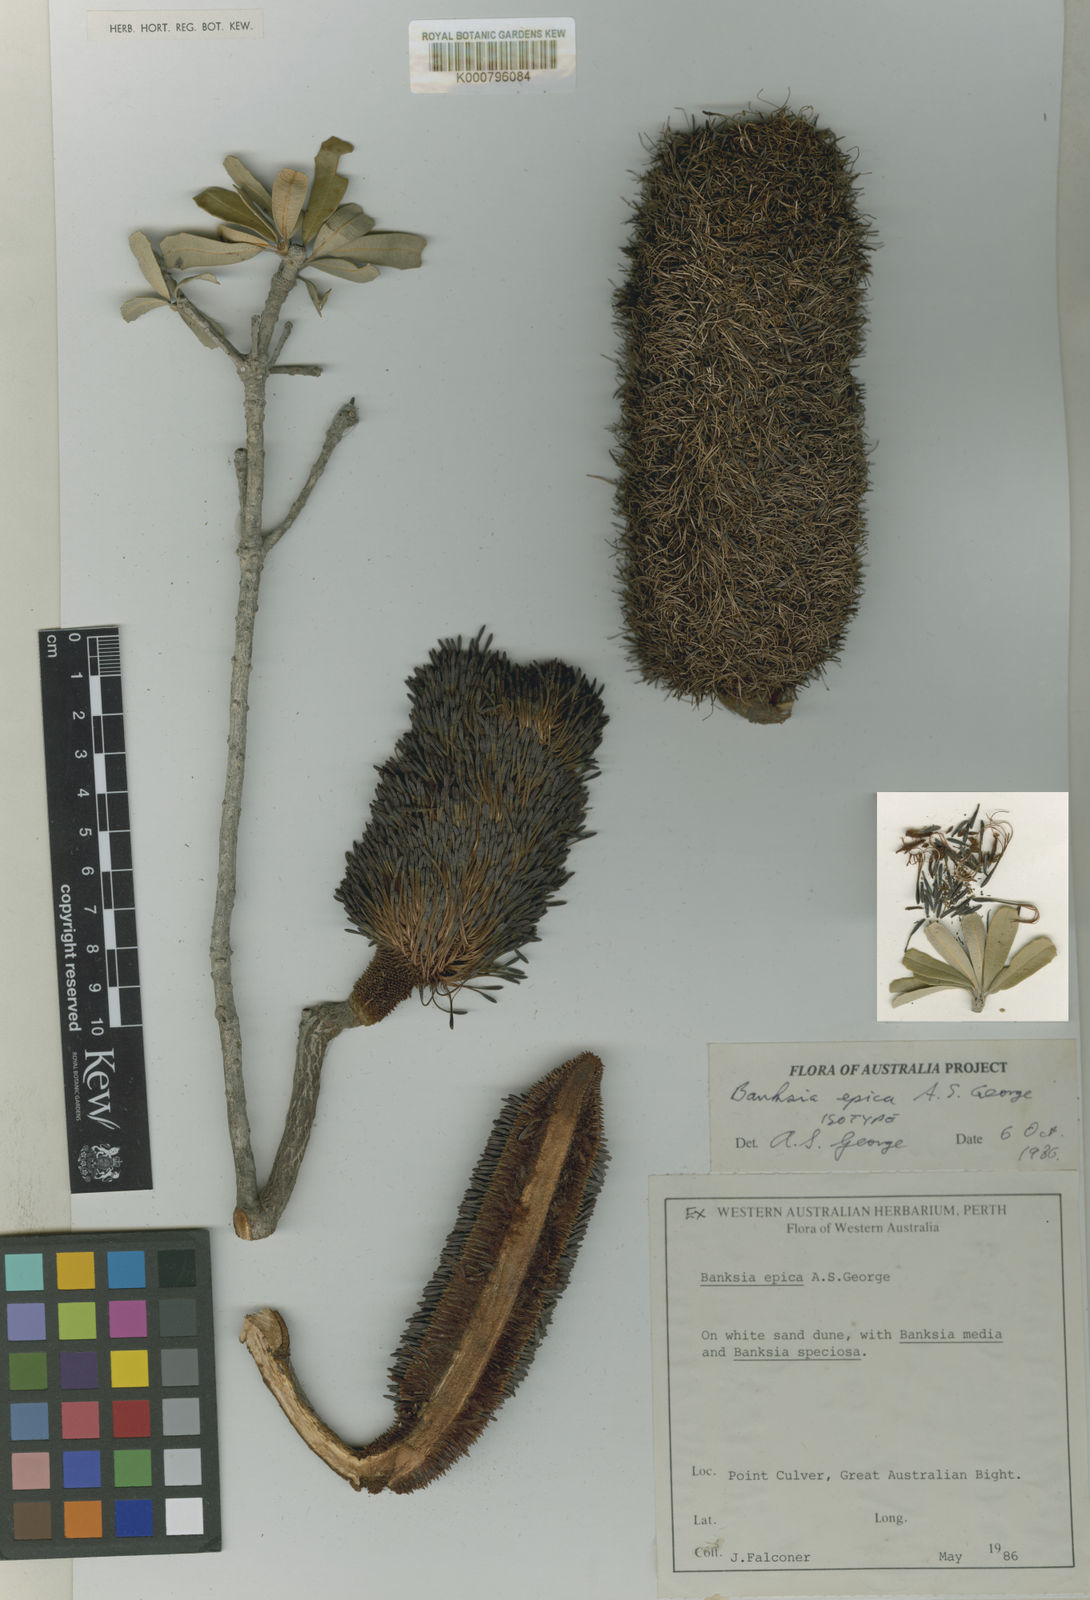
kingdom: Plantae
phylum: Tracheophyta
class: Magnoliopsida
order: Proteales
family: Proteaceae
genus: Banksia
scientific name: Banksia epica
